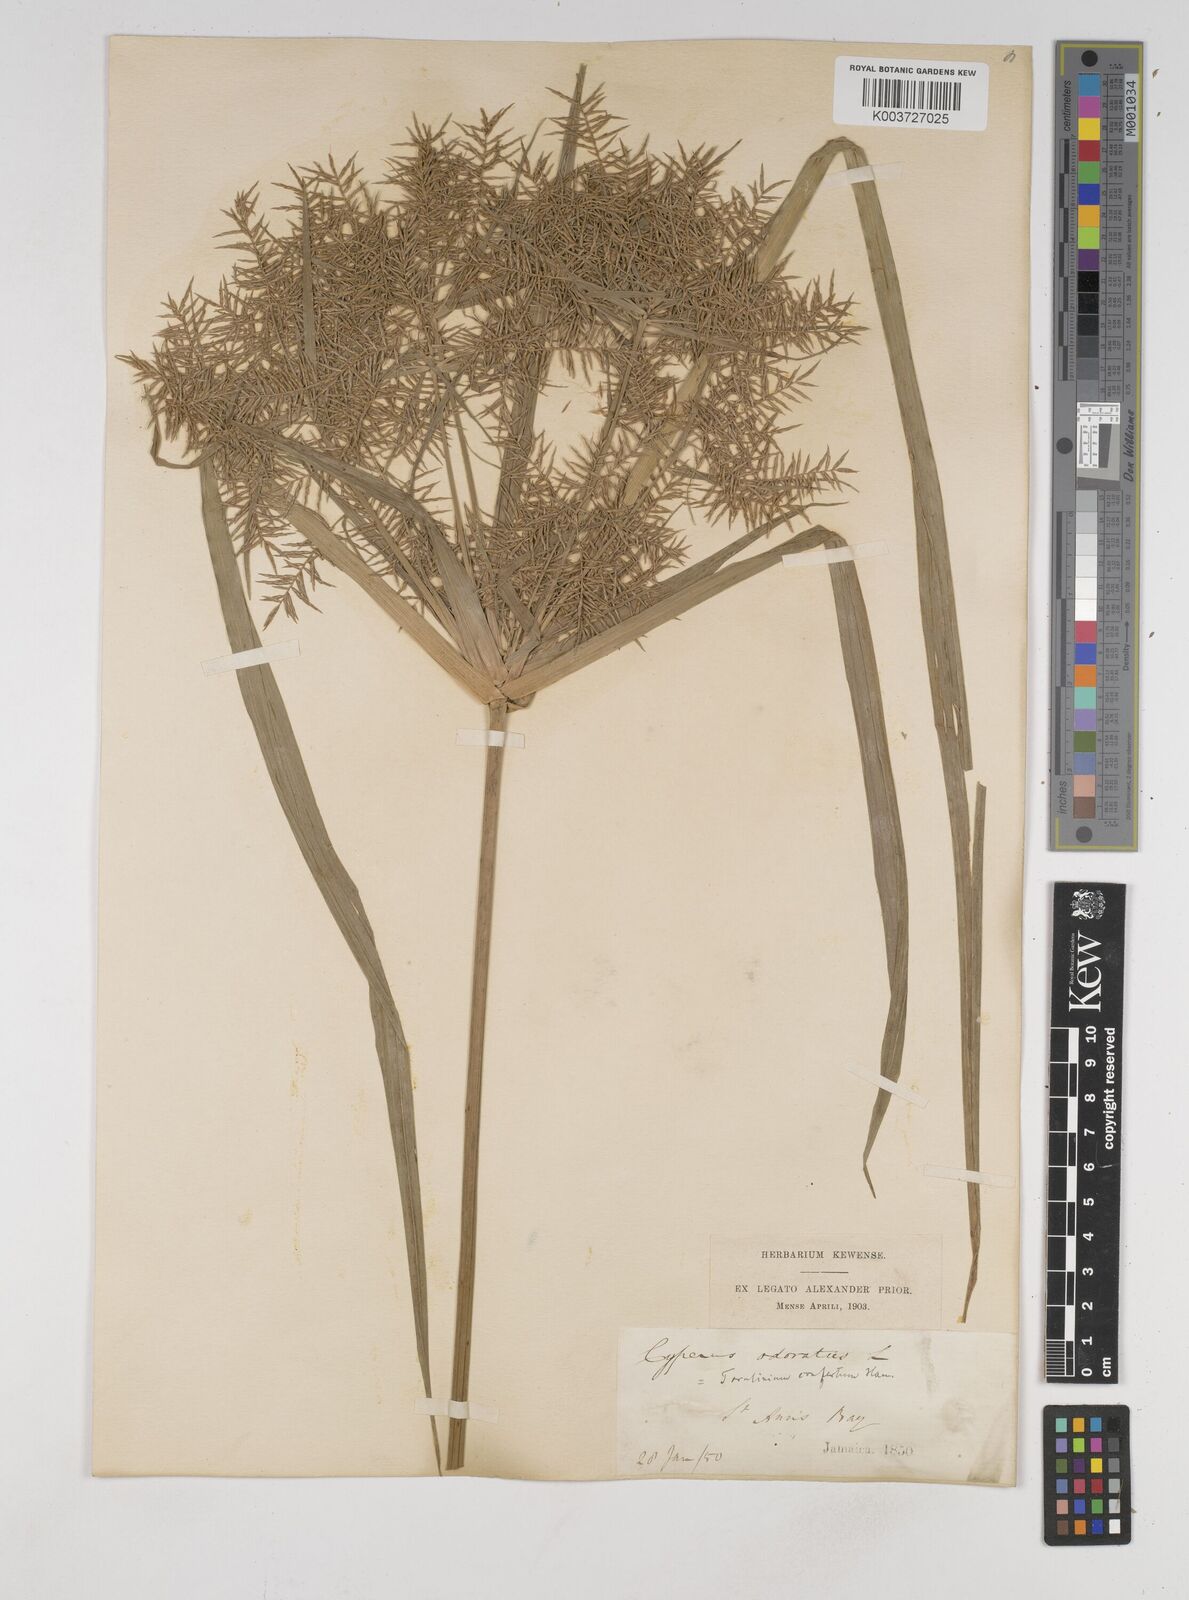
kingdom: Plantae
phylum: Tracheophyta
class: Liliopsida
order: Poales
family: Cyperaceae
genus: Cyperus
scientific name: Cyperus odoratus
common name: Fragrant flatsedge
